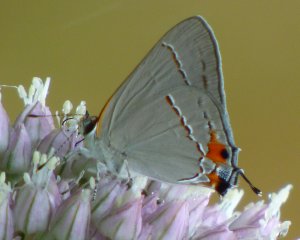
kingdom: Animalia
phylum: Arthropoda
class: Insecta
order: Lepidoptera
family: Lycaenidae
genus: Strymon
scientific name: Strymon melinus
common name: Gray Hairstreak
